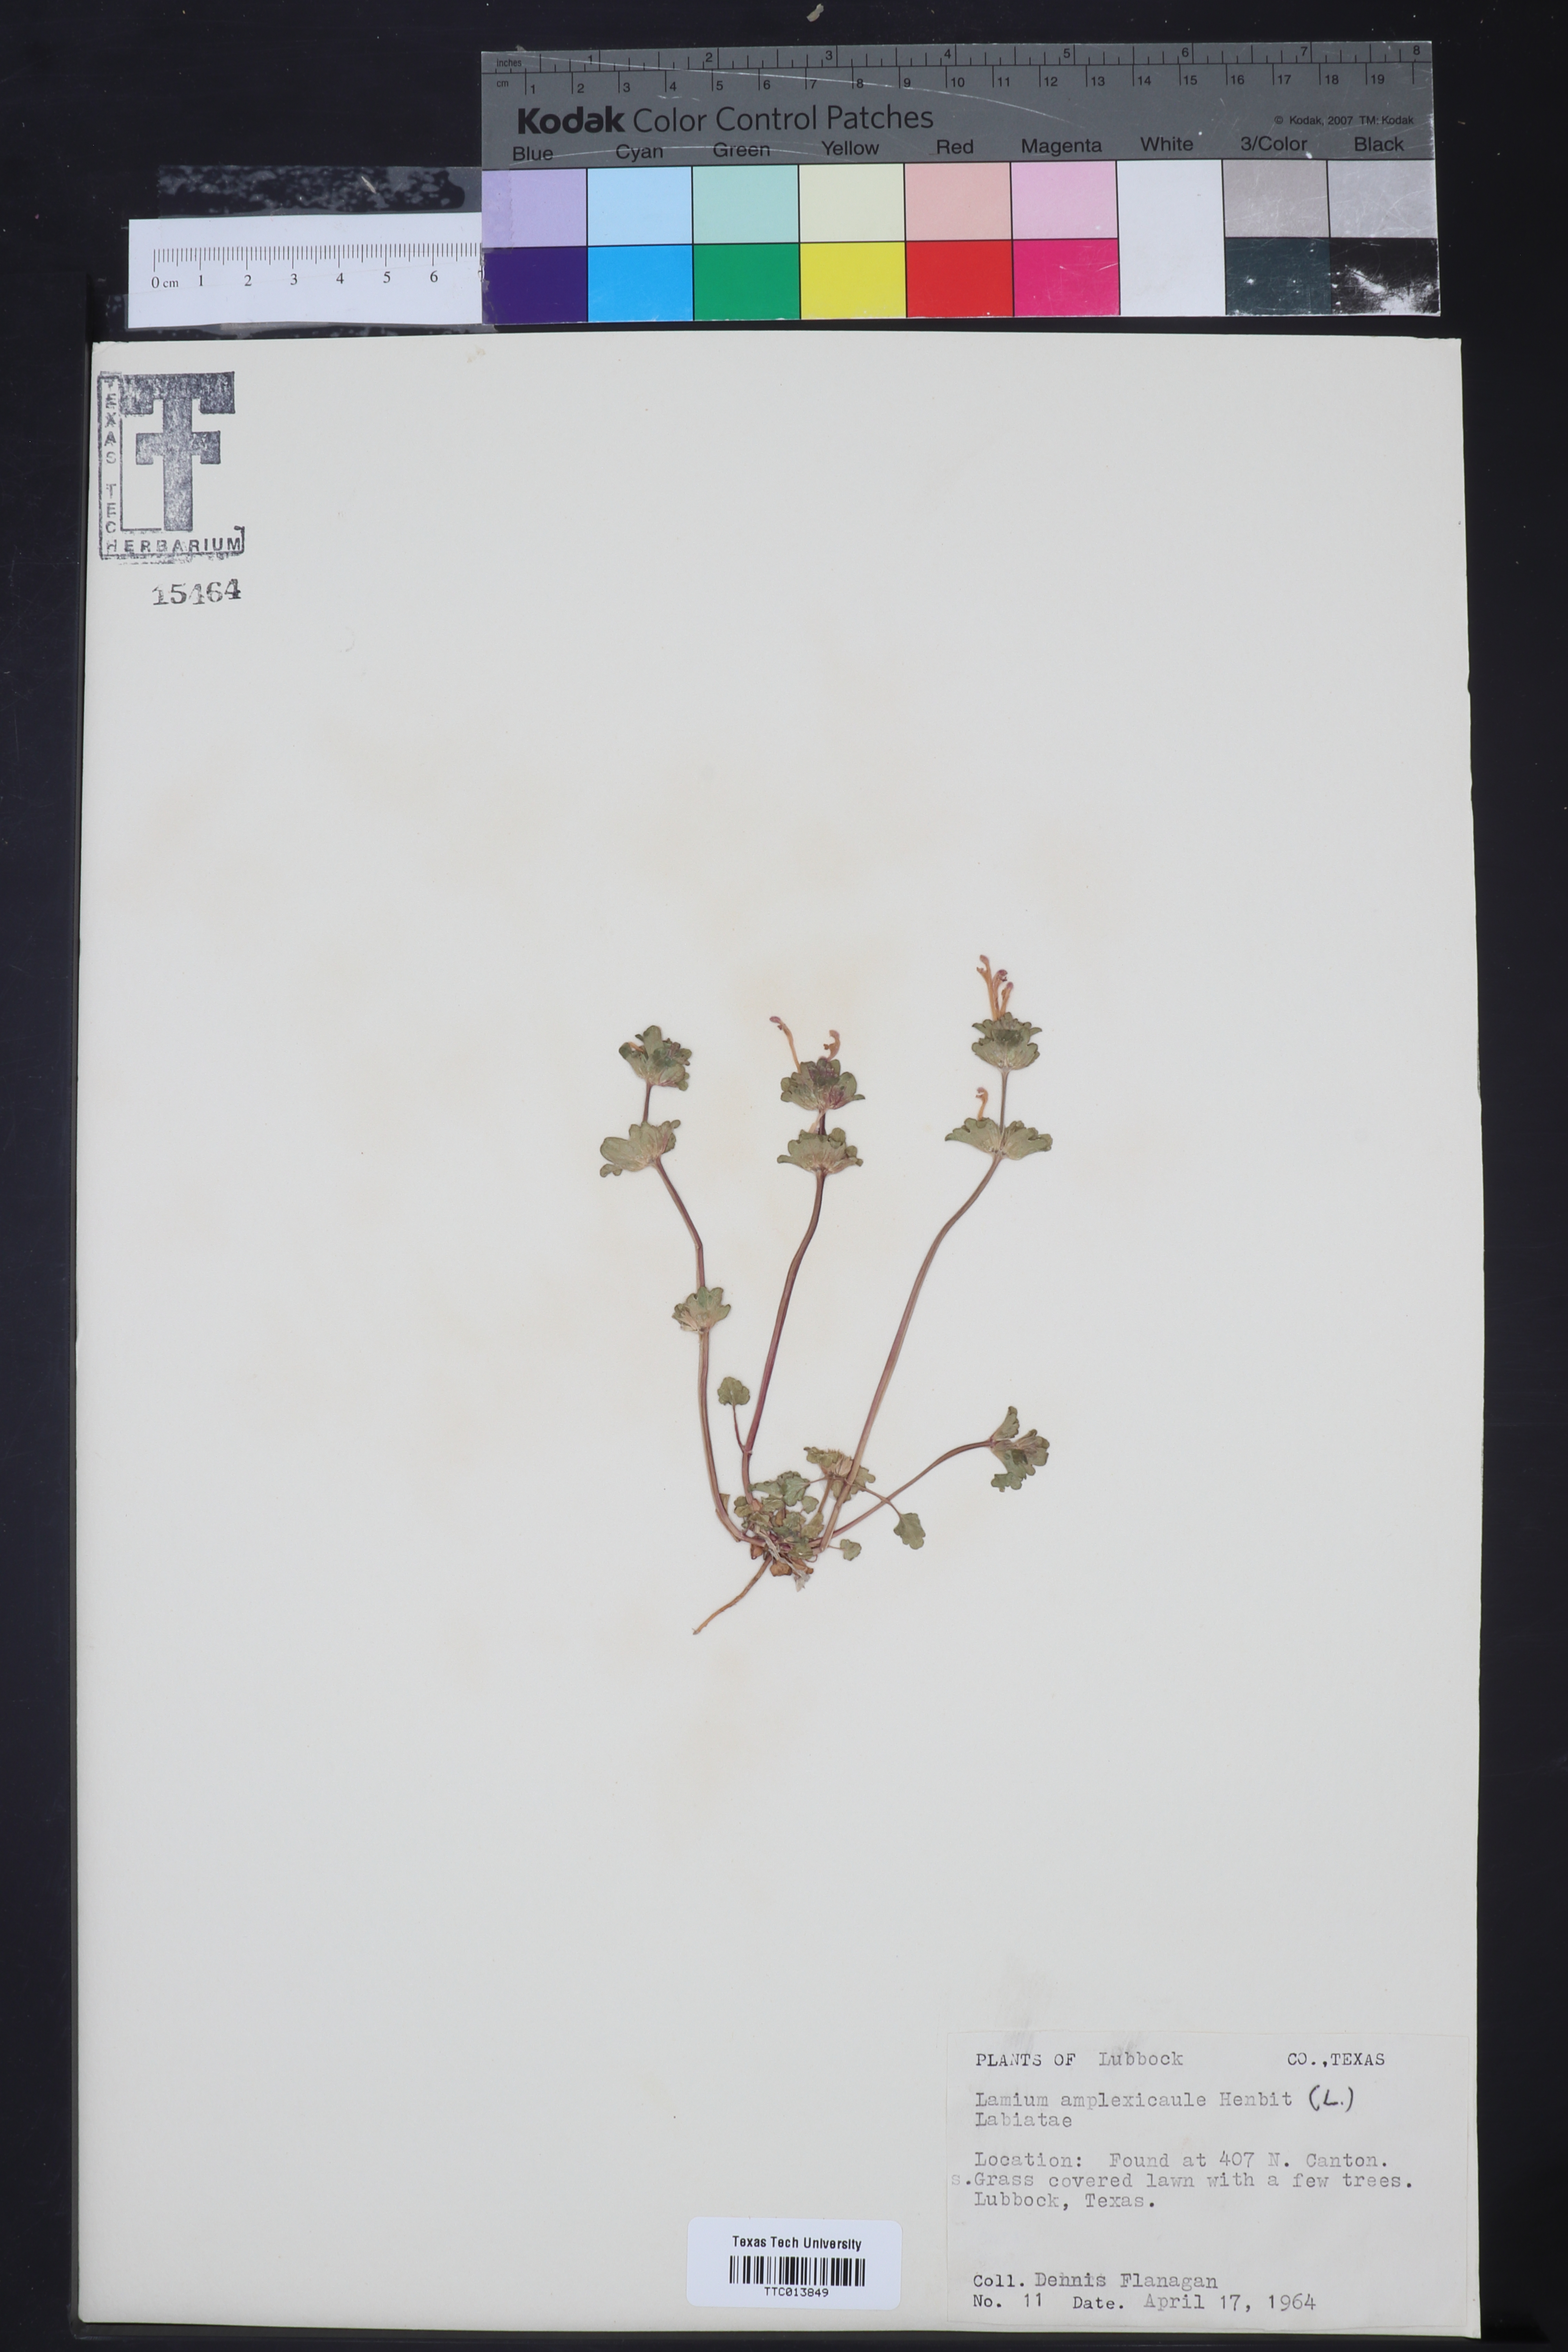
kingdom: Plantae
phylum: Tracheophyta
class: Magnoliopsida
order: Lamiales
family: Lamiaceae
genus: Lamium
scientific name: Lamium amplexicaule
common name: Henbit dead-nettle
